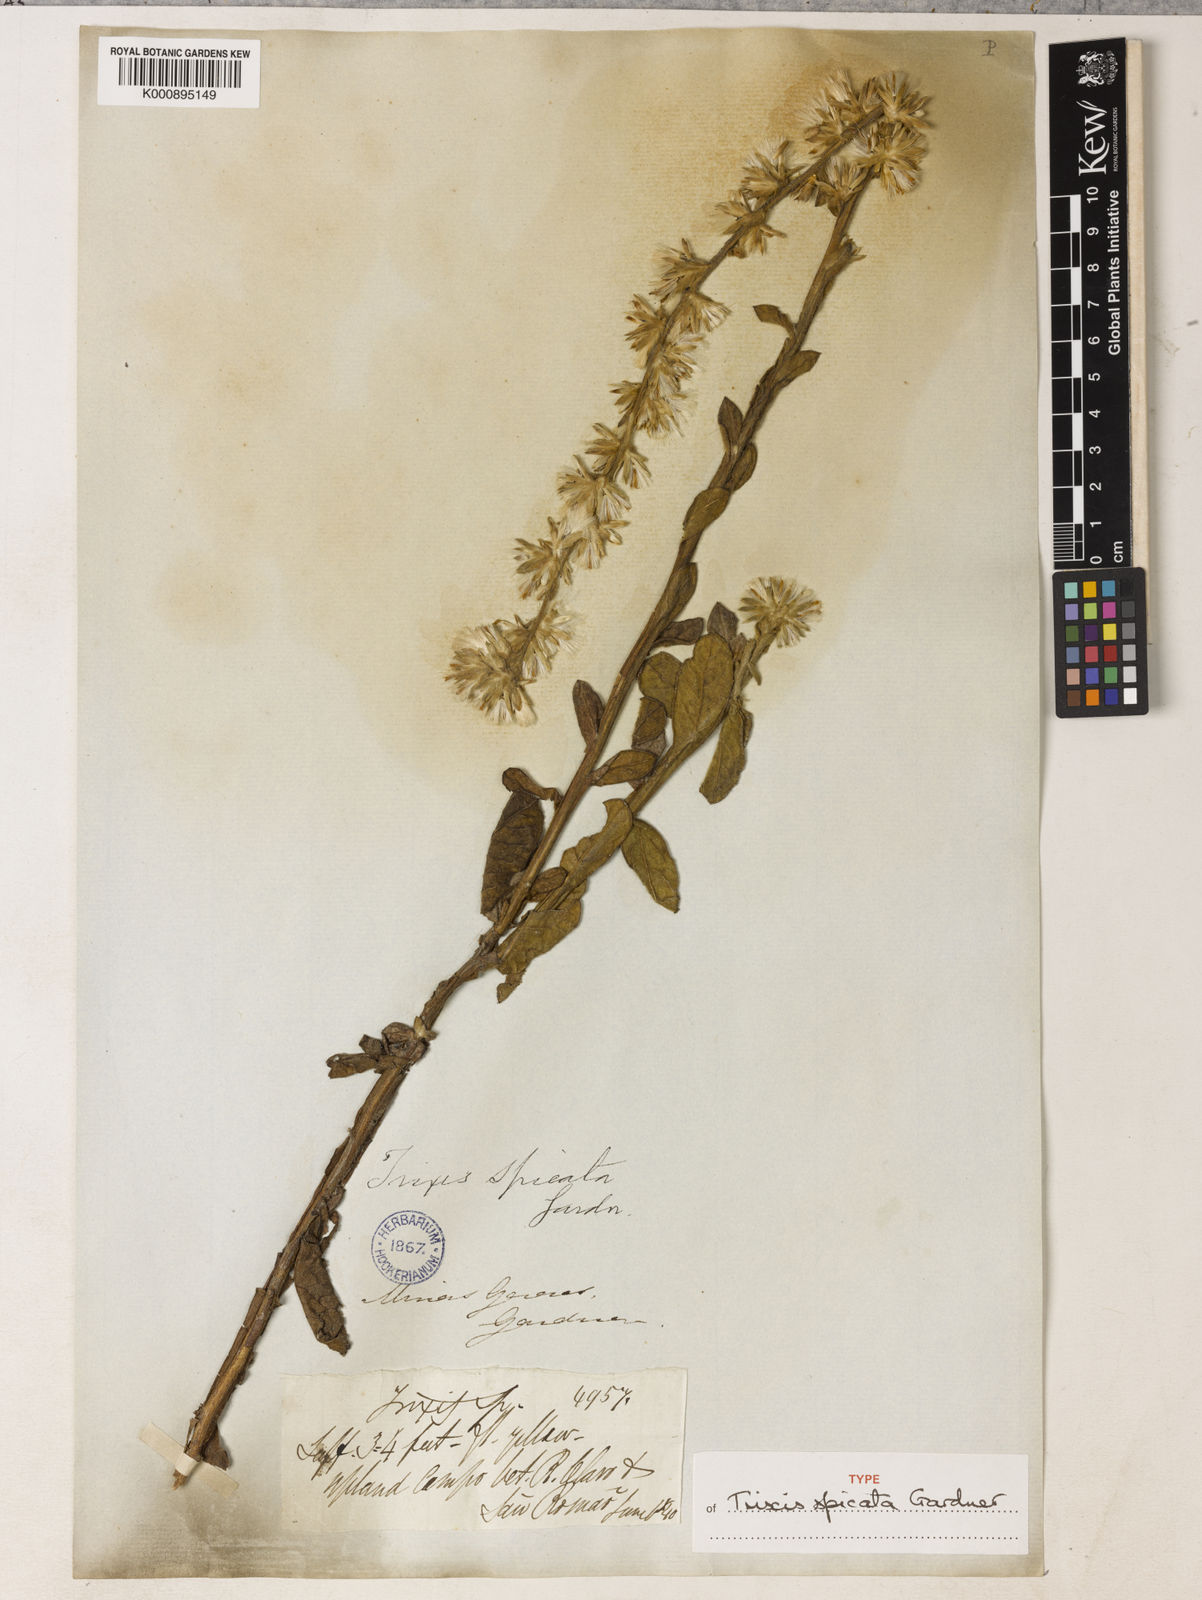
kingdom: Plantae
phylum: Tracheophyta
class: Magnoliopsida
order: Asterales
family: Asteraceae
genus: Trixis
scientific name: Trixis spicata
